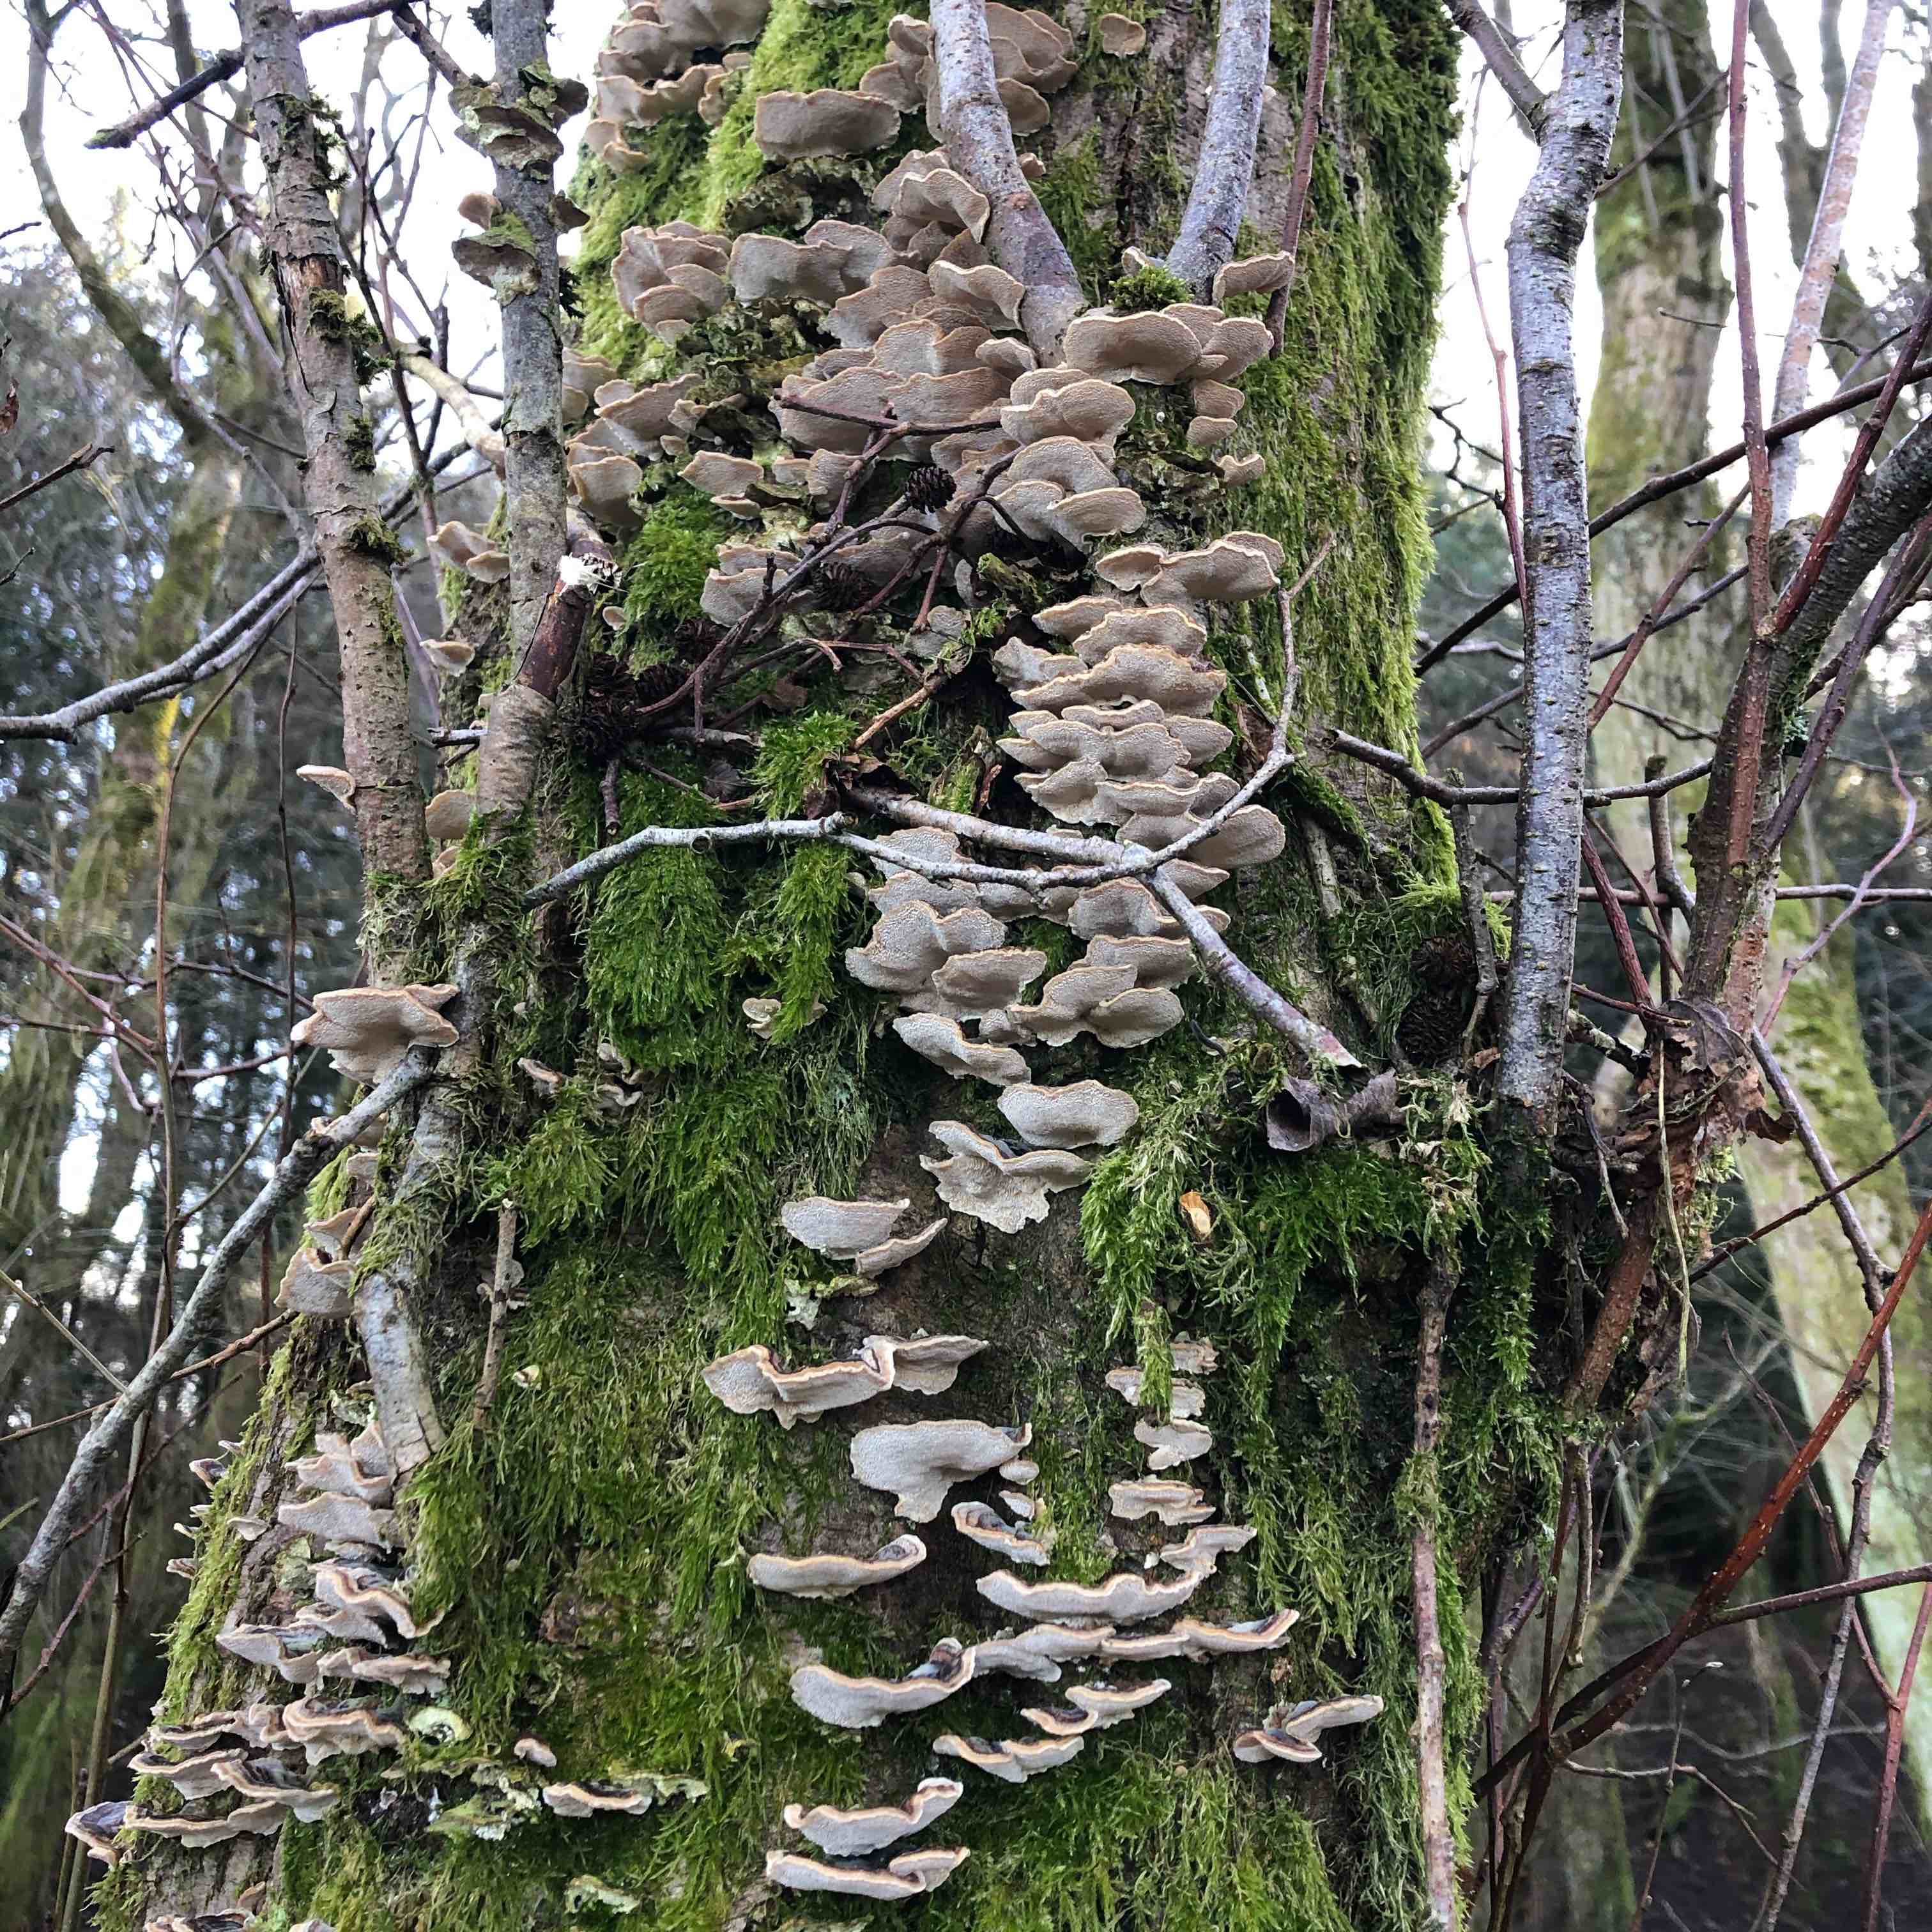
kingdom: Fungi
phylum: Basidiomycota
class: Agaricomycetes
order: Polyporales
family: Polyporaceae
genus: Trametes
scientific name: Trametes versicolor
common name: broget læderporesvamp
